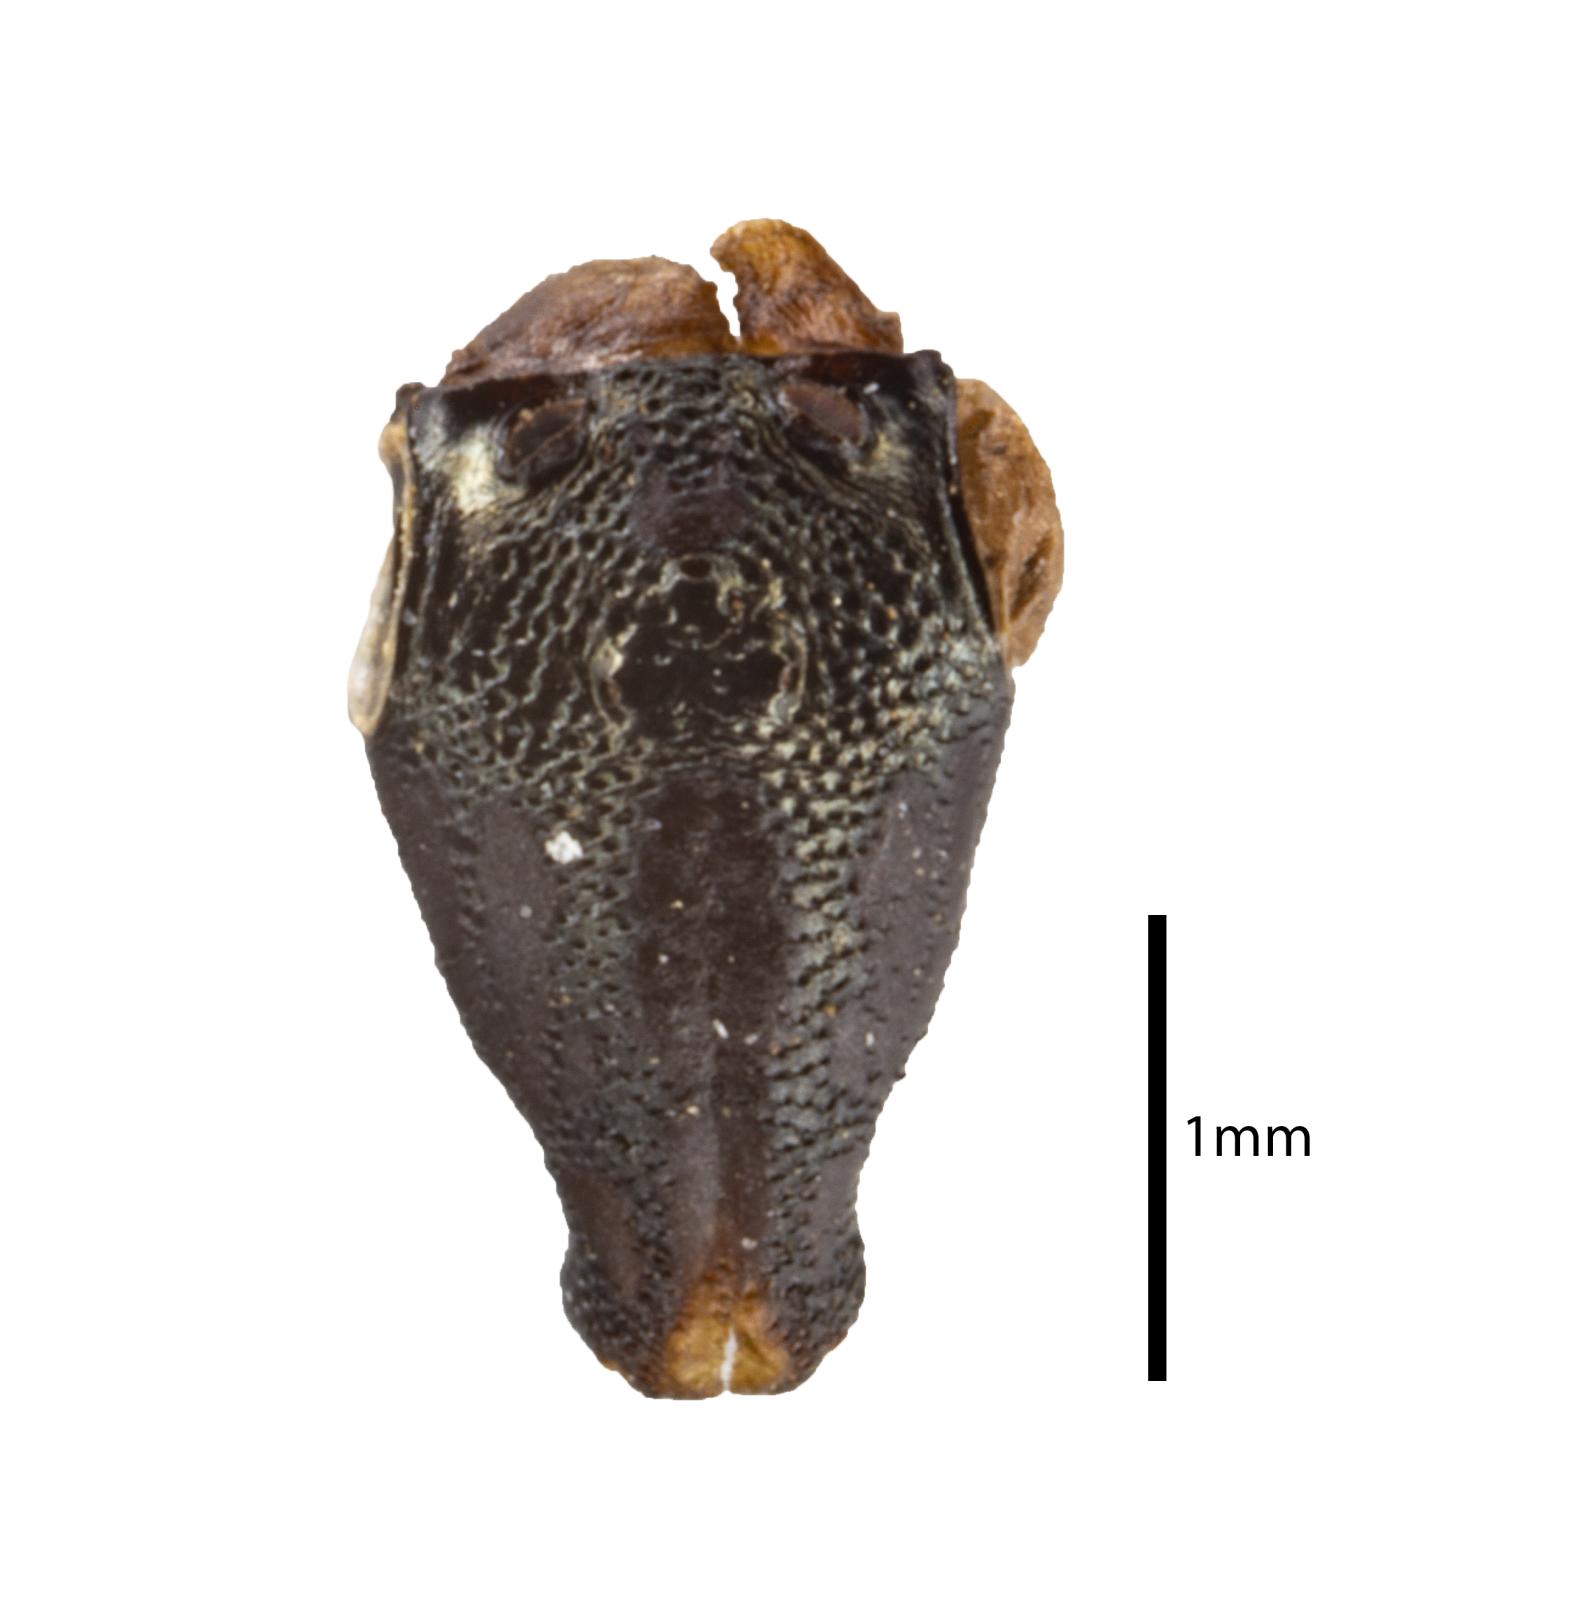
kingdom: Animalia
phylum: Arthropoda
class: Insecta
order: Hemiptera
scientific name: Hemiptera
